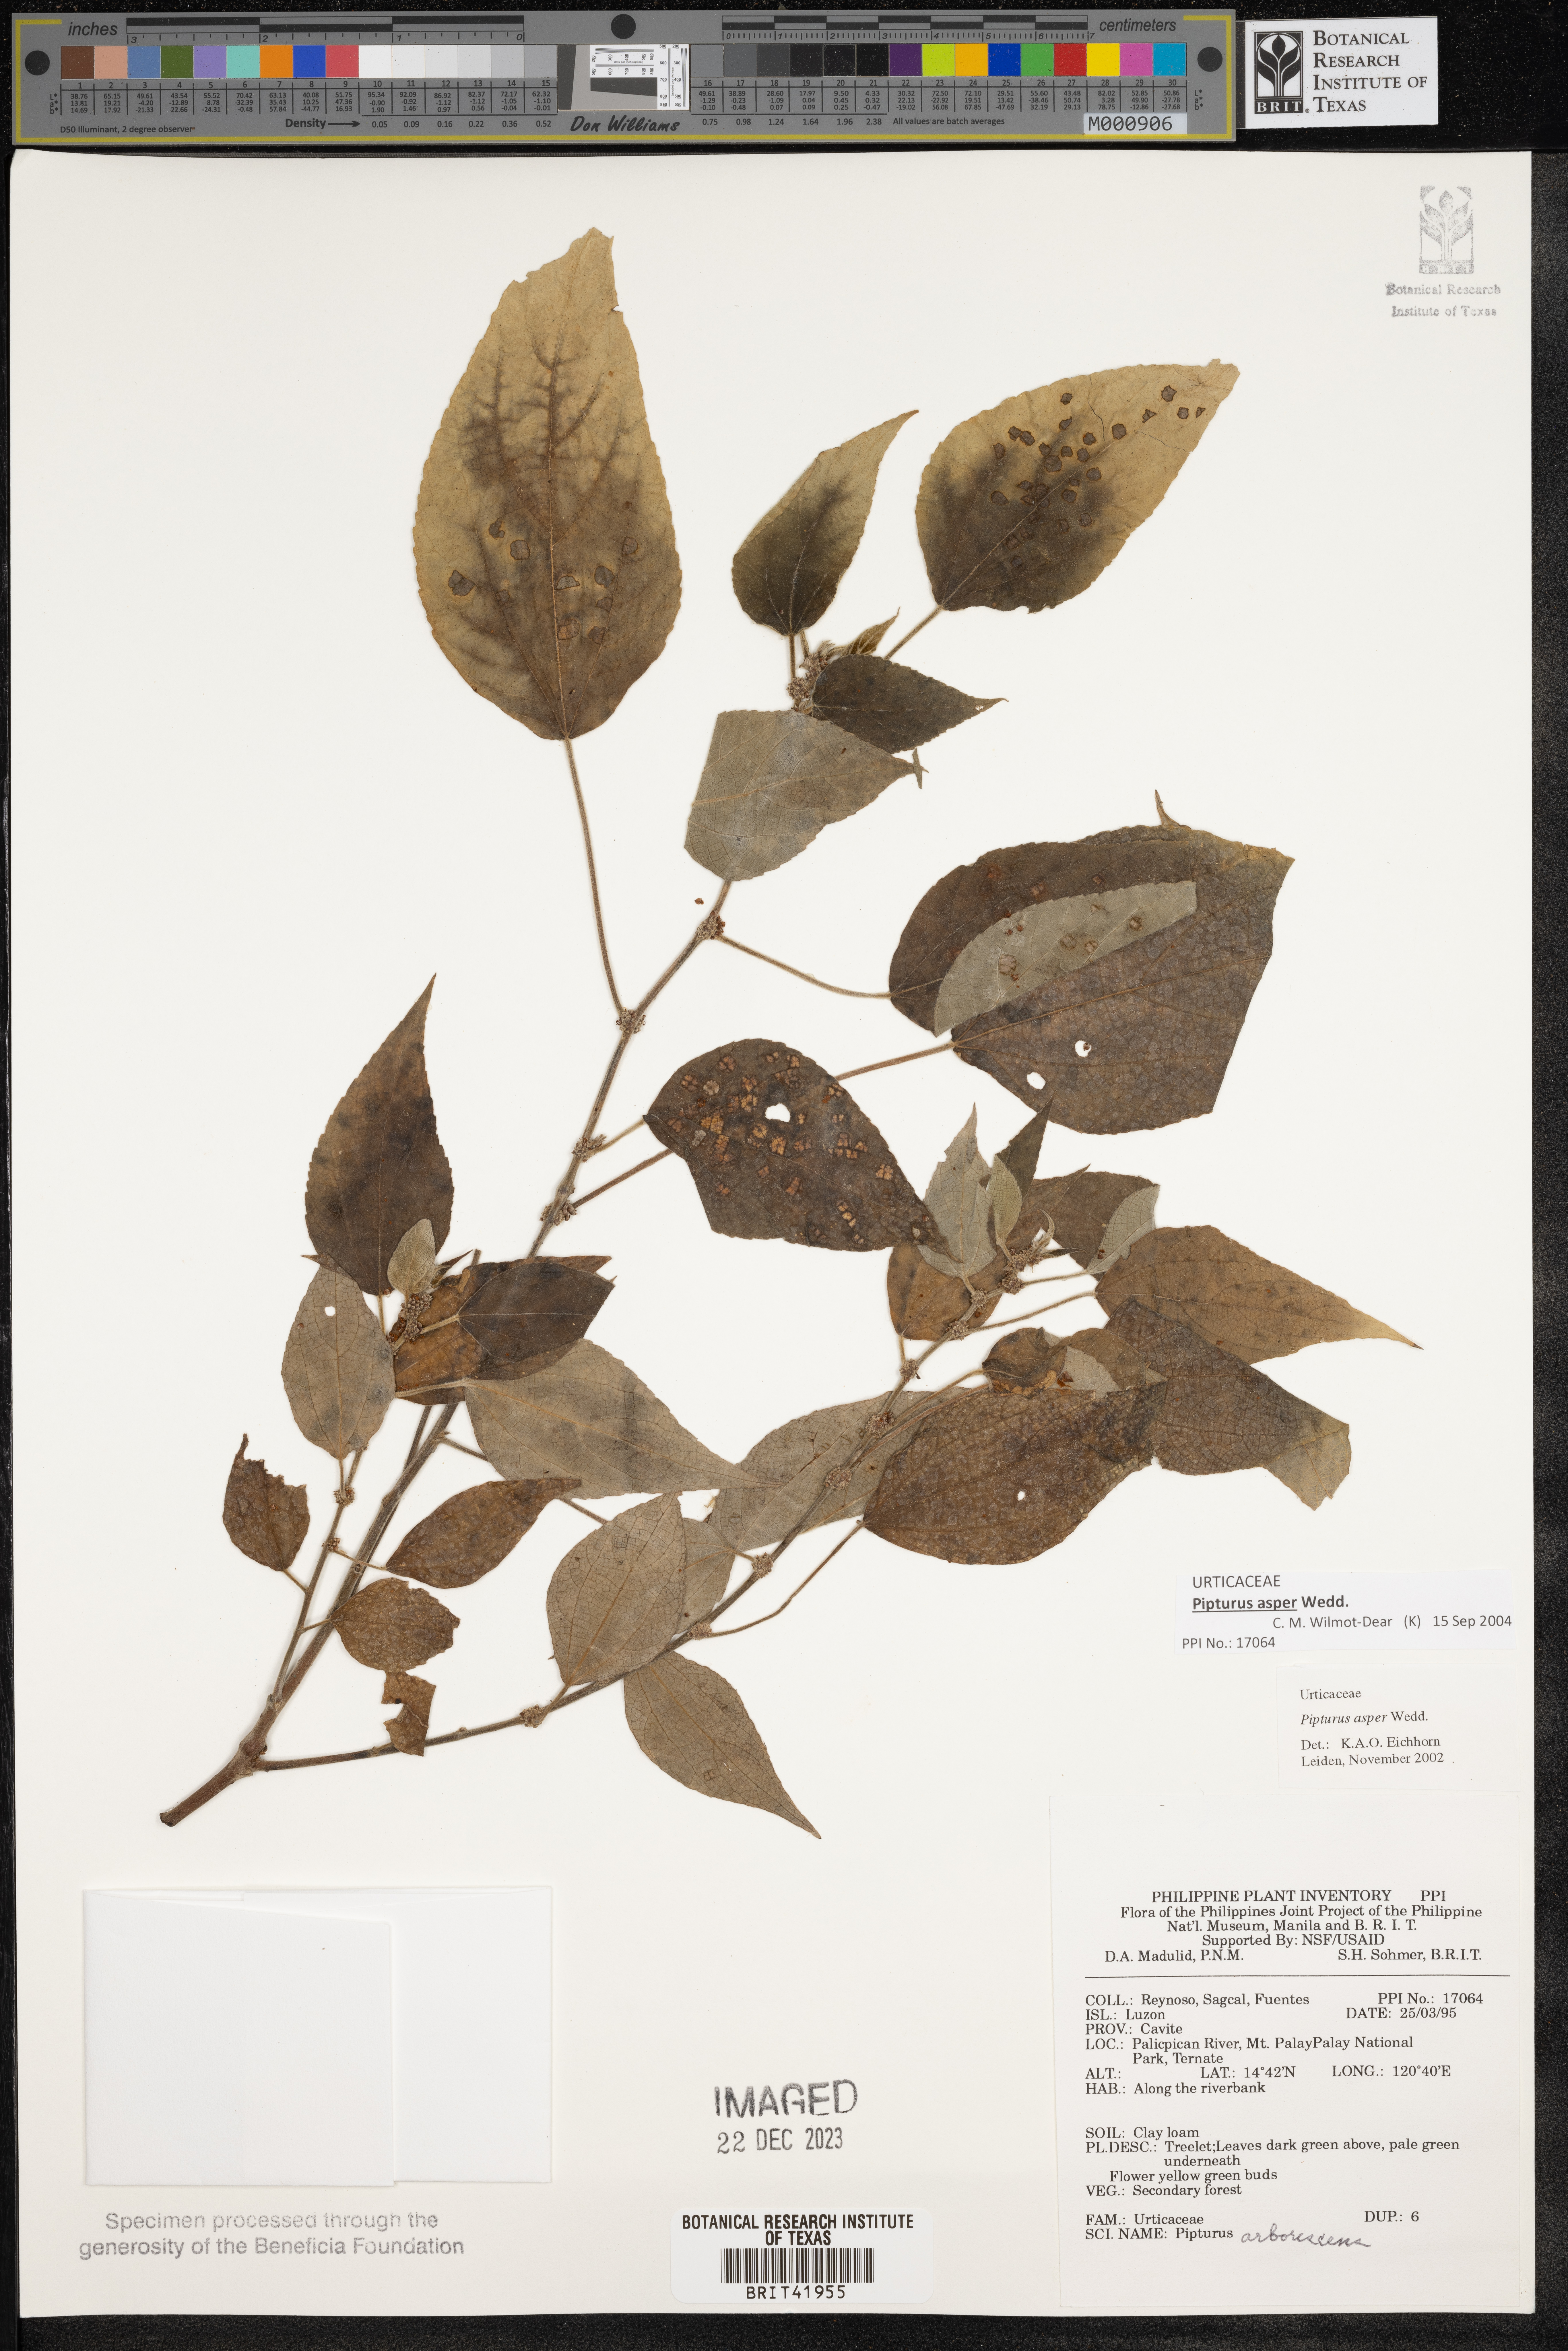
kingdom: Plantae
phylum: Tracheophyta
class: Magnoliopsida
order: Rosales
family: Urticaceae
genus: Pipturus
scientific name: Pipturus arborescens
